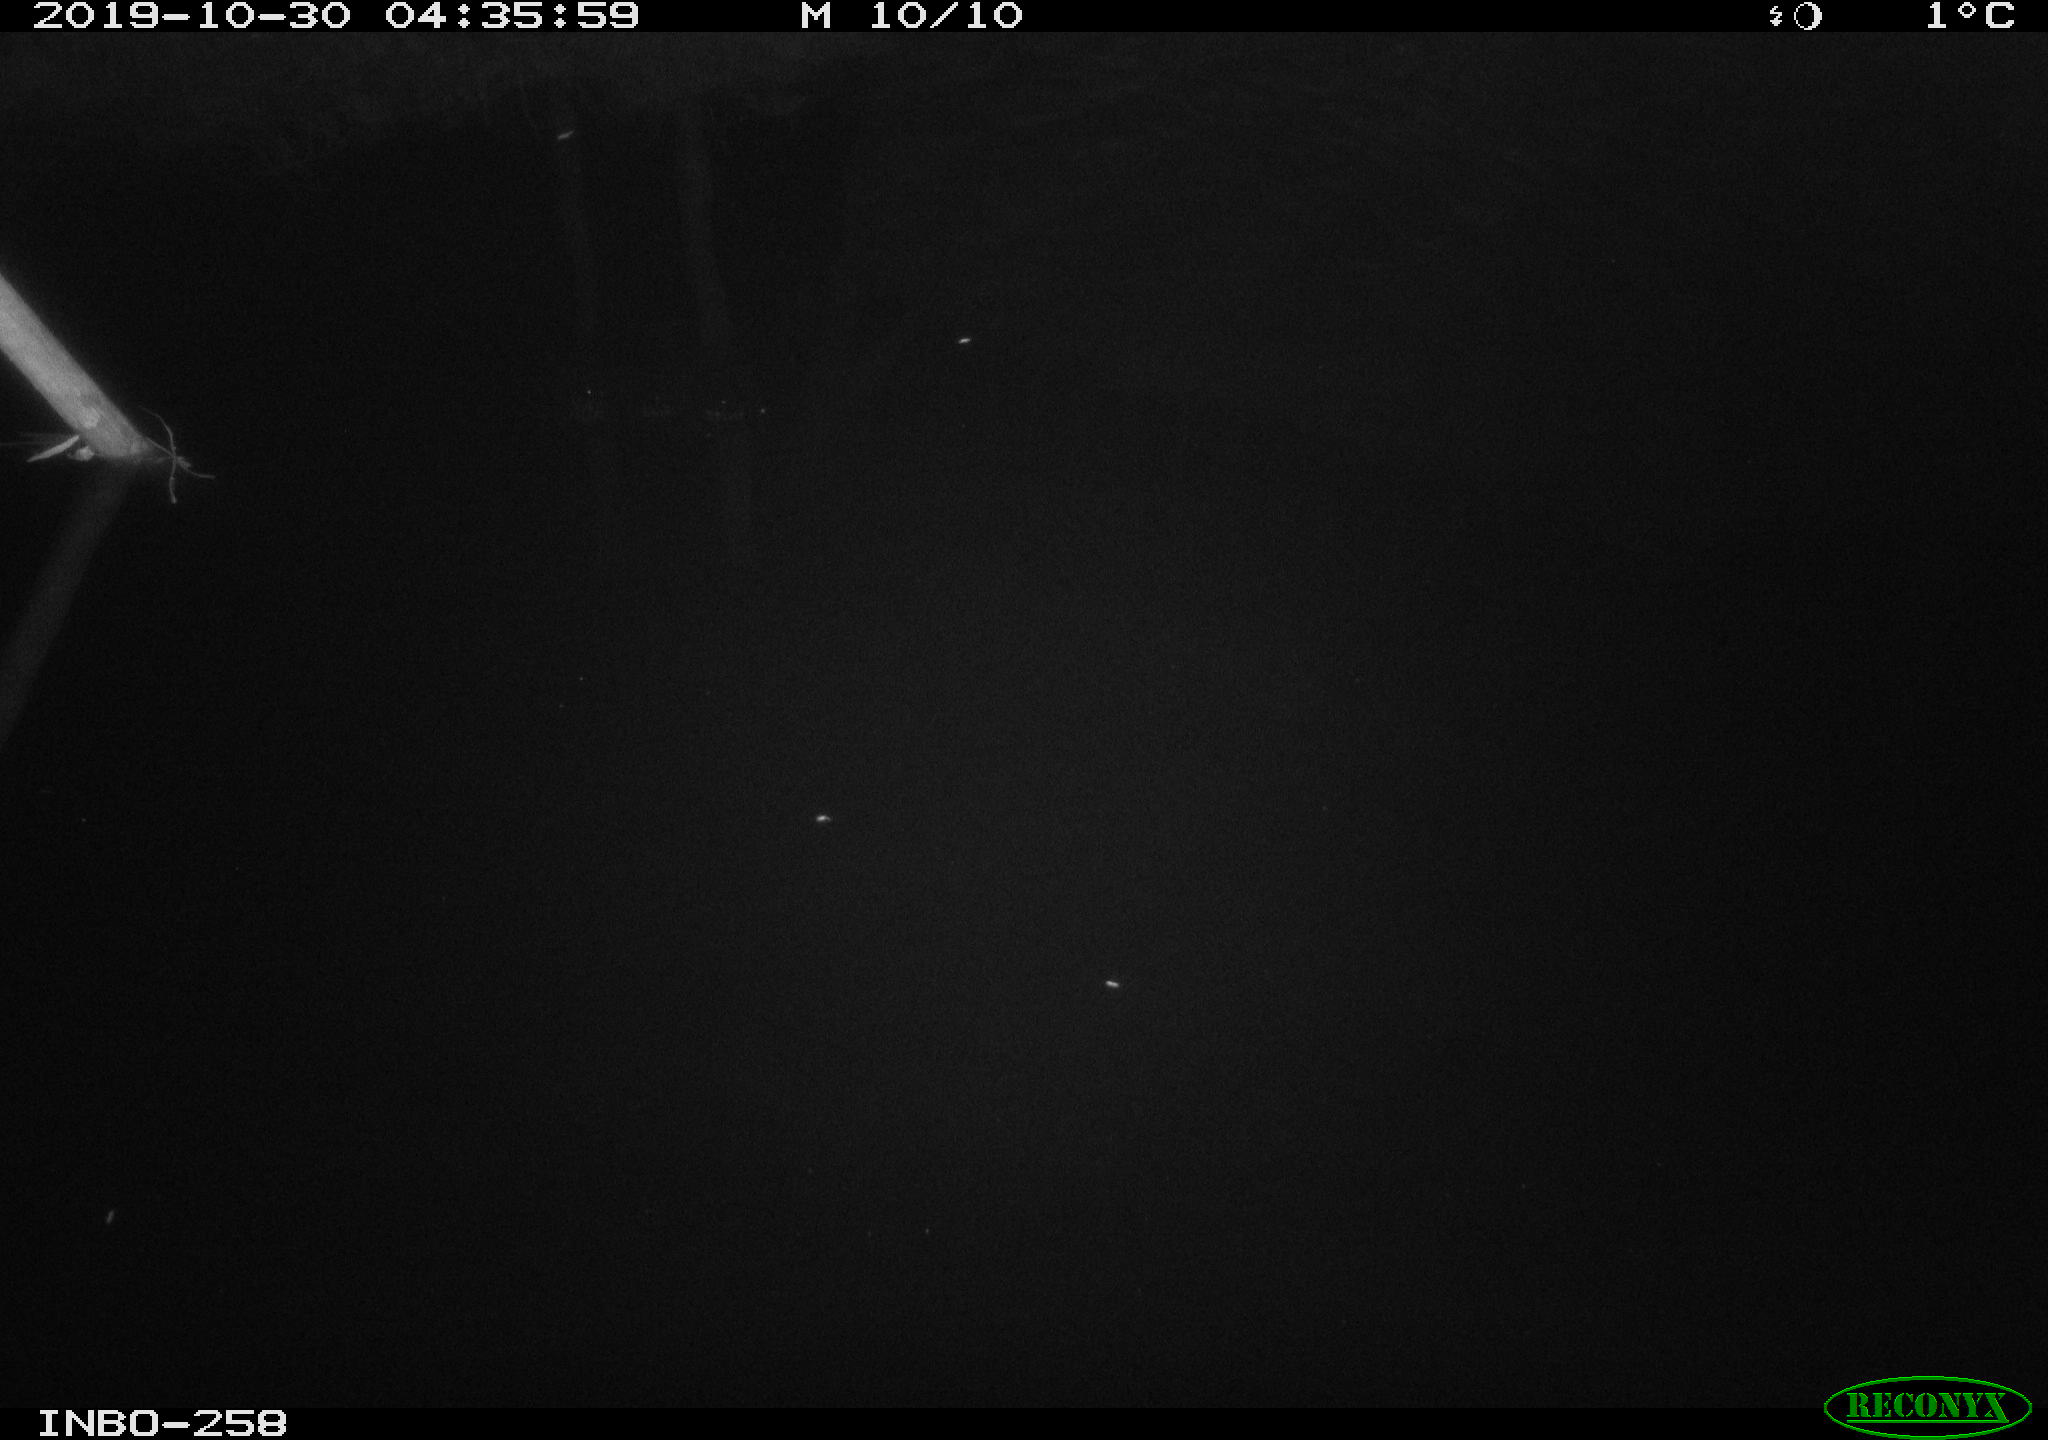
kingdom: Animalia
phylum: Chordata
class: Aves
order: Anseriformes
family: Anatidae
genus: Anas
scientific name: Anas platyrhynchos
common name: Mallard
